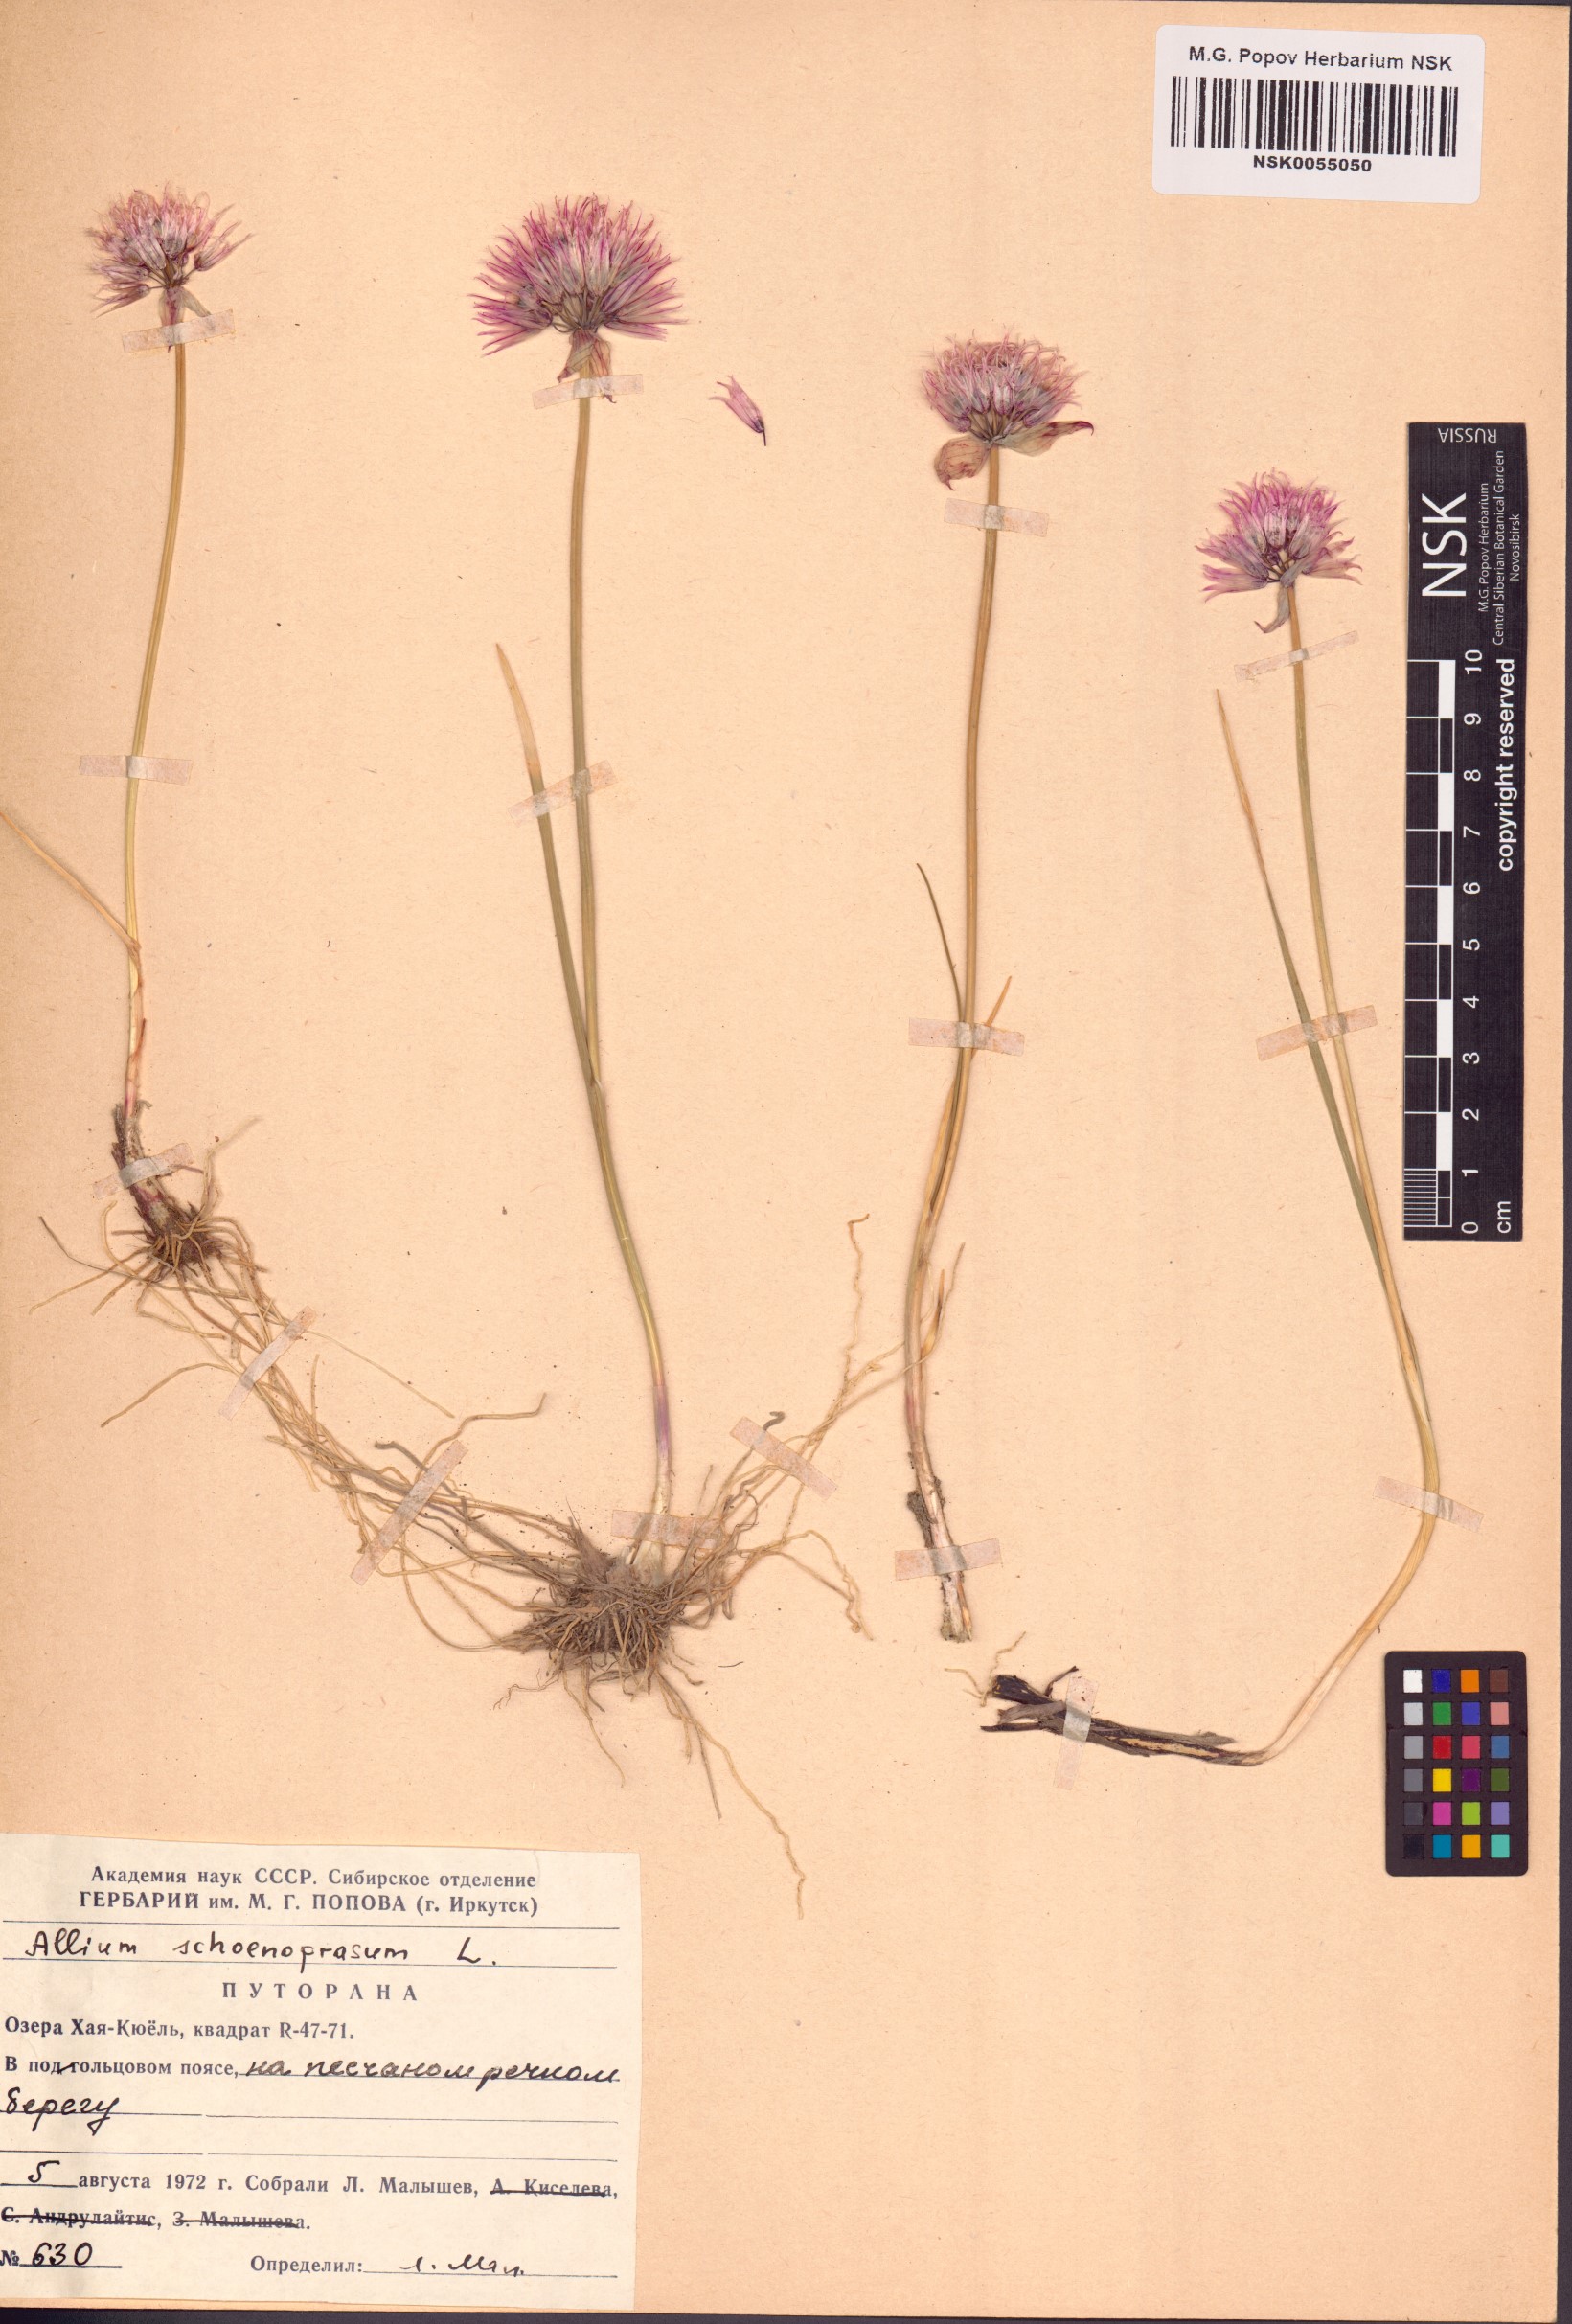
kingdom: Plantae
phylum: Tracheophyta
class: Liliopsida
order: Asparagales
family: Amaryllidaceae
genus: Allium
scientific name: Allium schoenoprasum
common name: Chives
